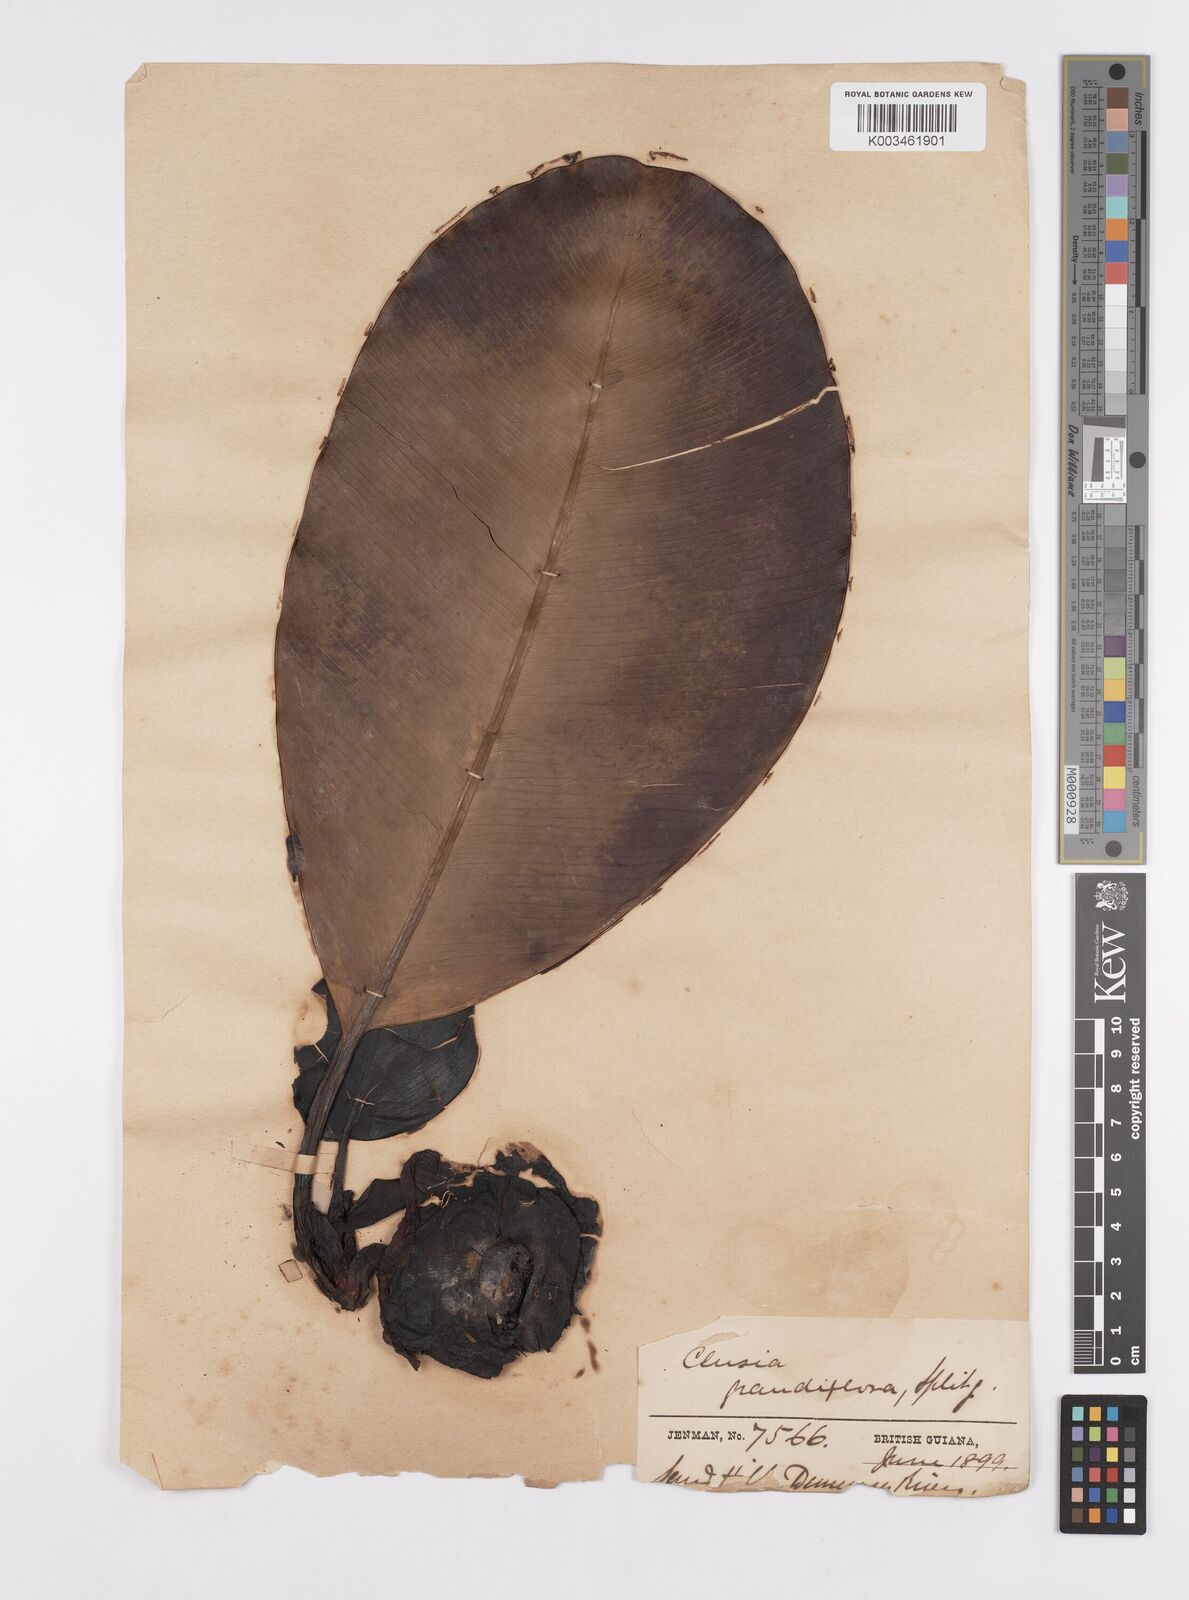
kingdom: Plantae
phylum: Tracheophyta
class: Magnoliopsida
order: Malpighiales
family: Clusiaceae
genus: Clusia
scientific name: Clusia grandiflora
